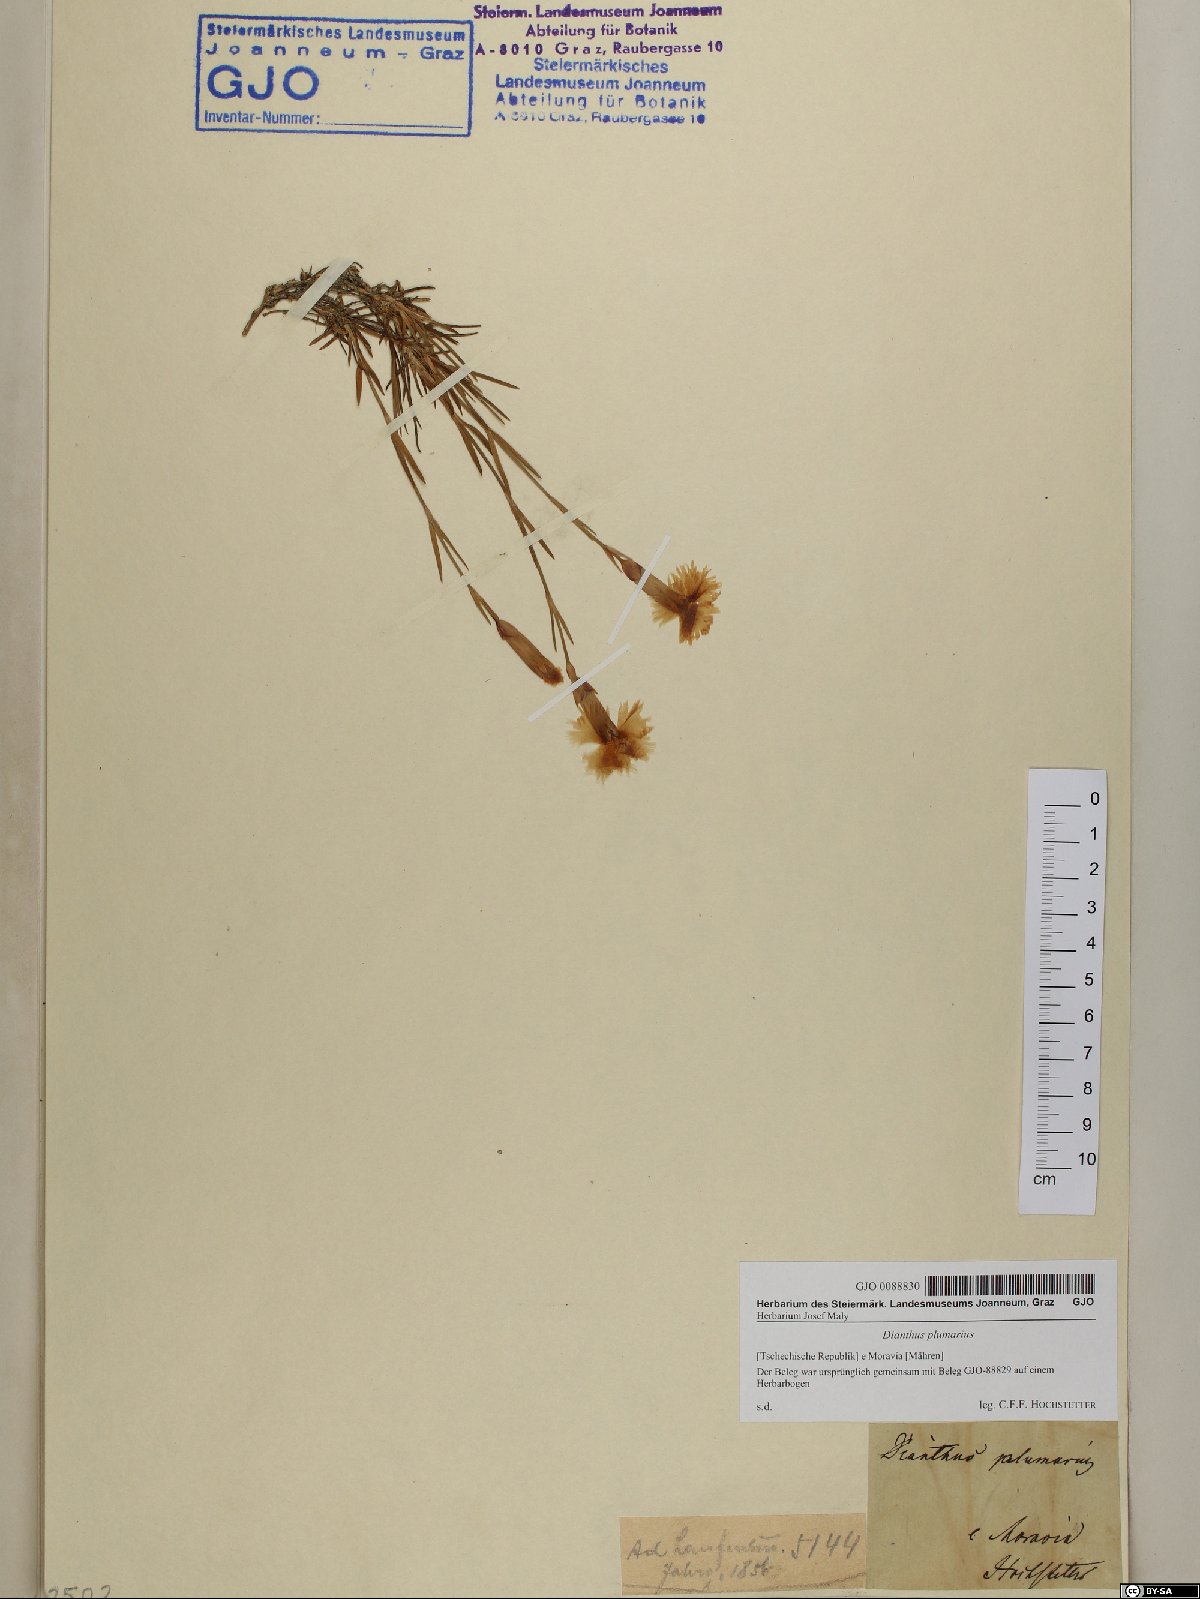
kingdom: Plantae
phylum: Tracheophyta
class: Magnoliopsida
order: Caryophyllales
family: Caryophyllaceae
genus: Dianthus
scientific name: Dianthus plumarius
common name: Pink
